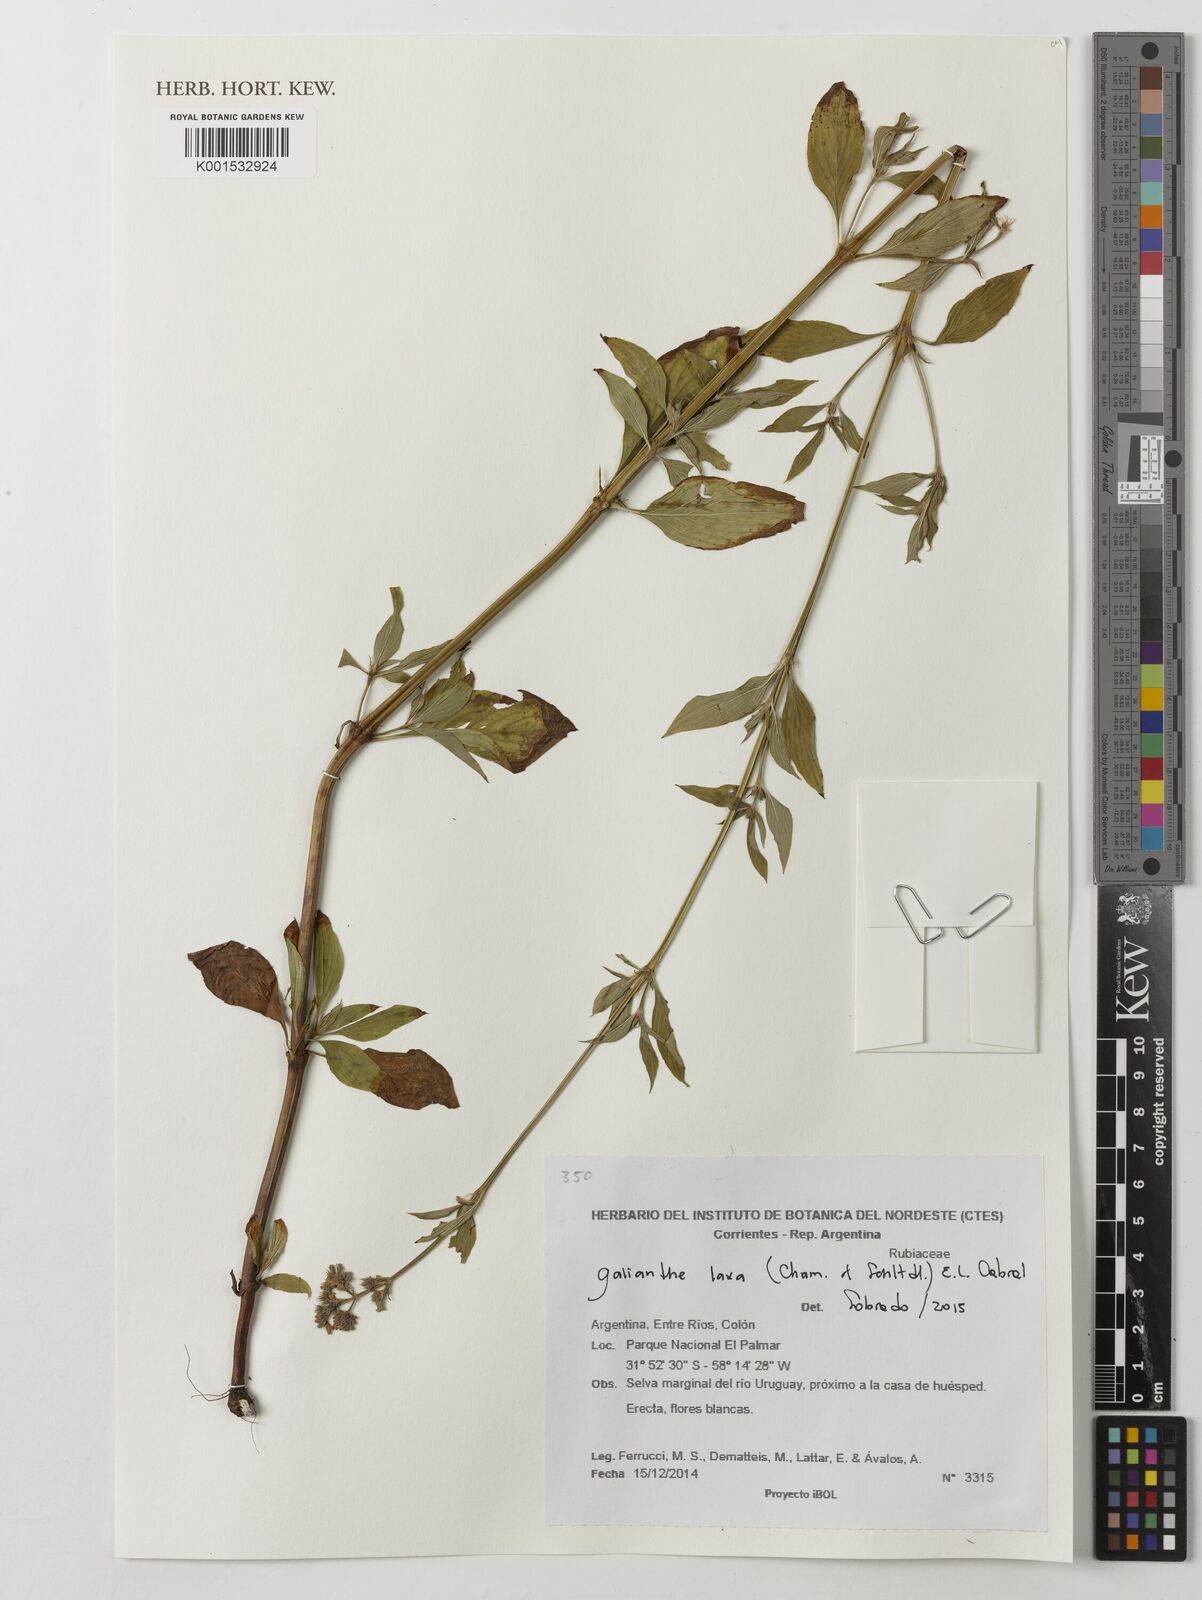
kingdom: Plantae
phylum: Tracheophyta
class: Magnoliopsida
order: Gentianales
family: Rubiaceae
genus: Galianthe
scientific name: Galianthe laxa
